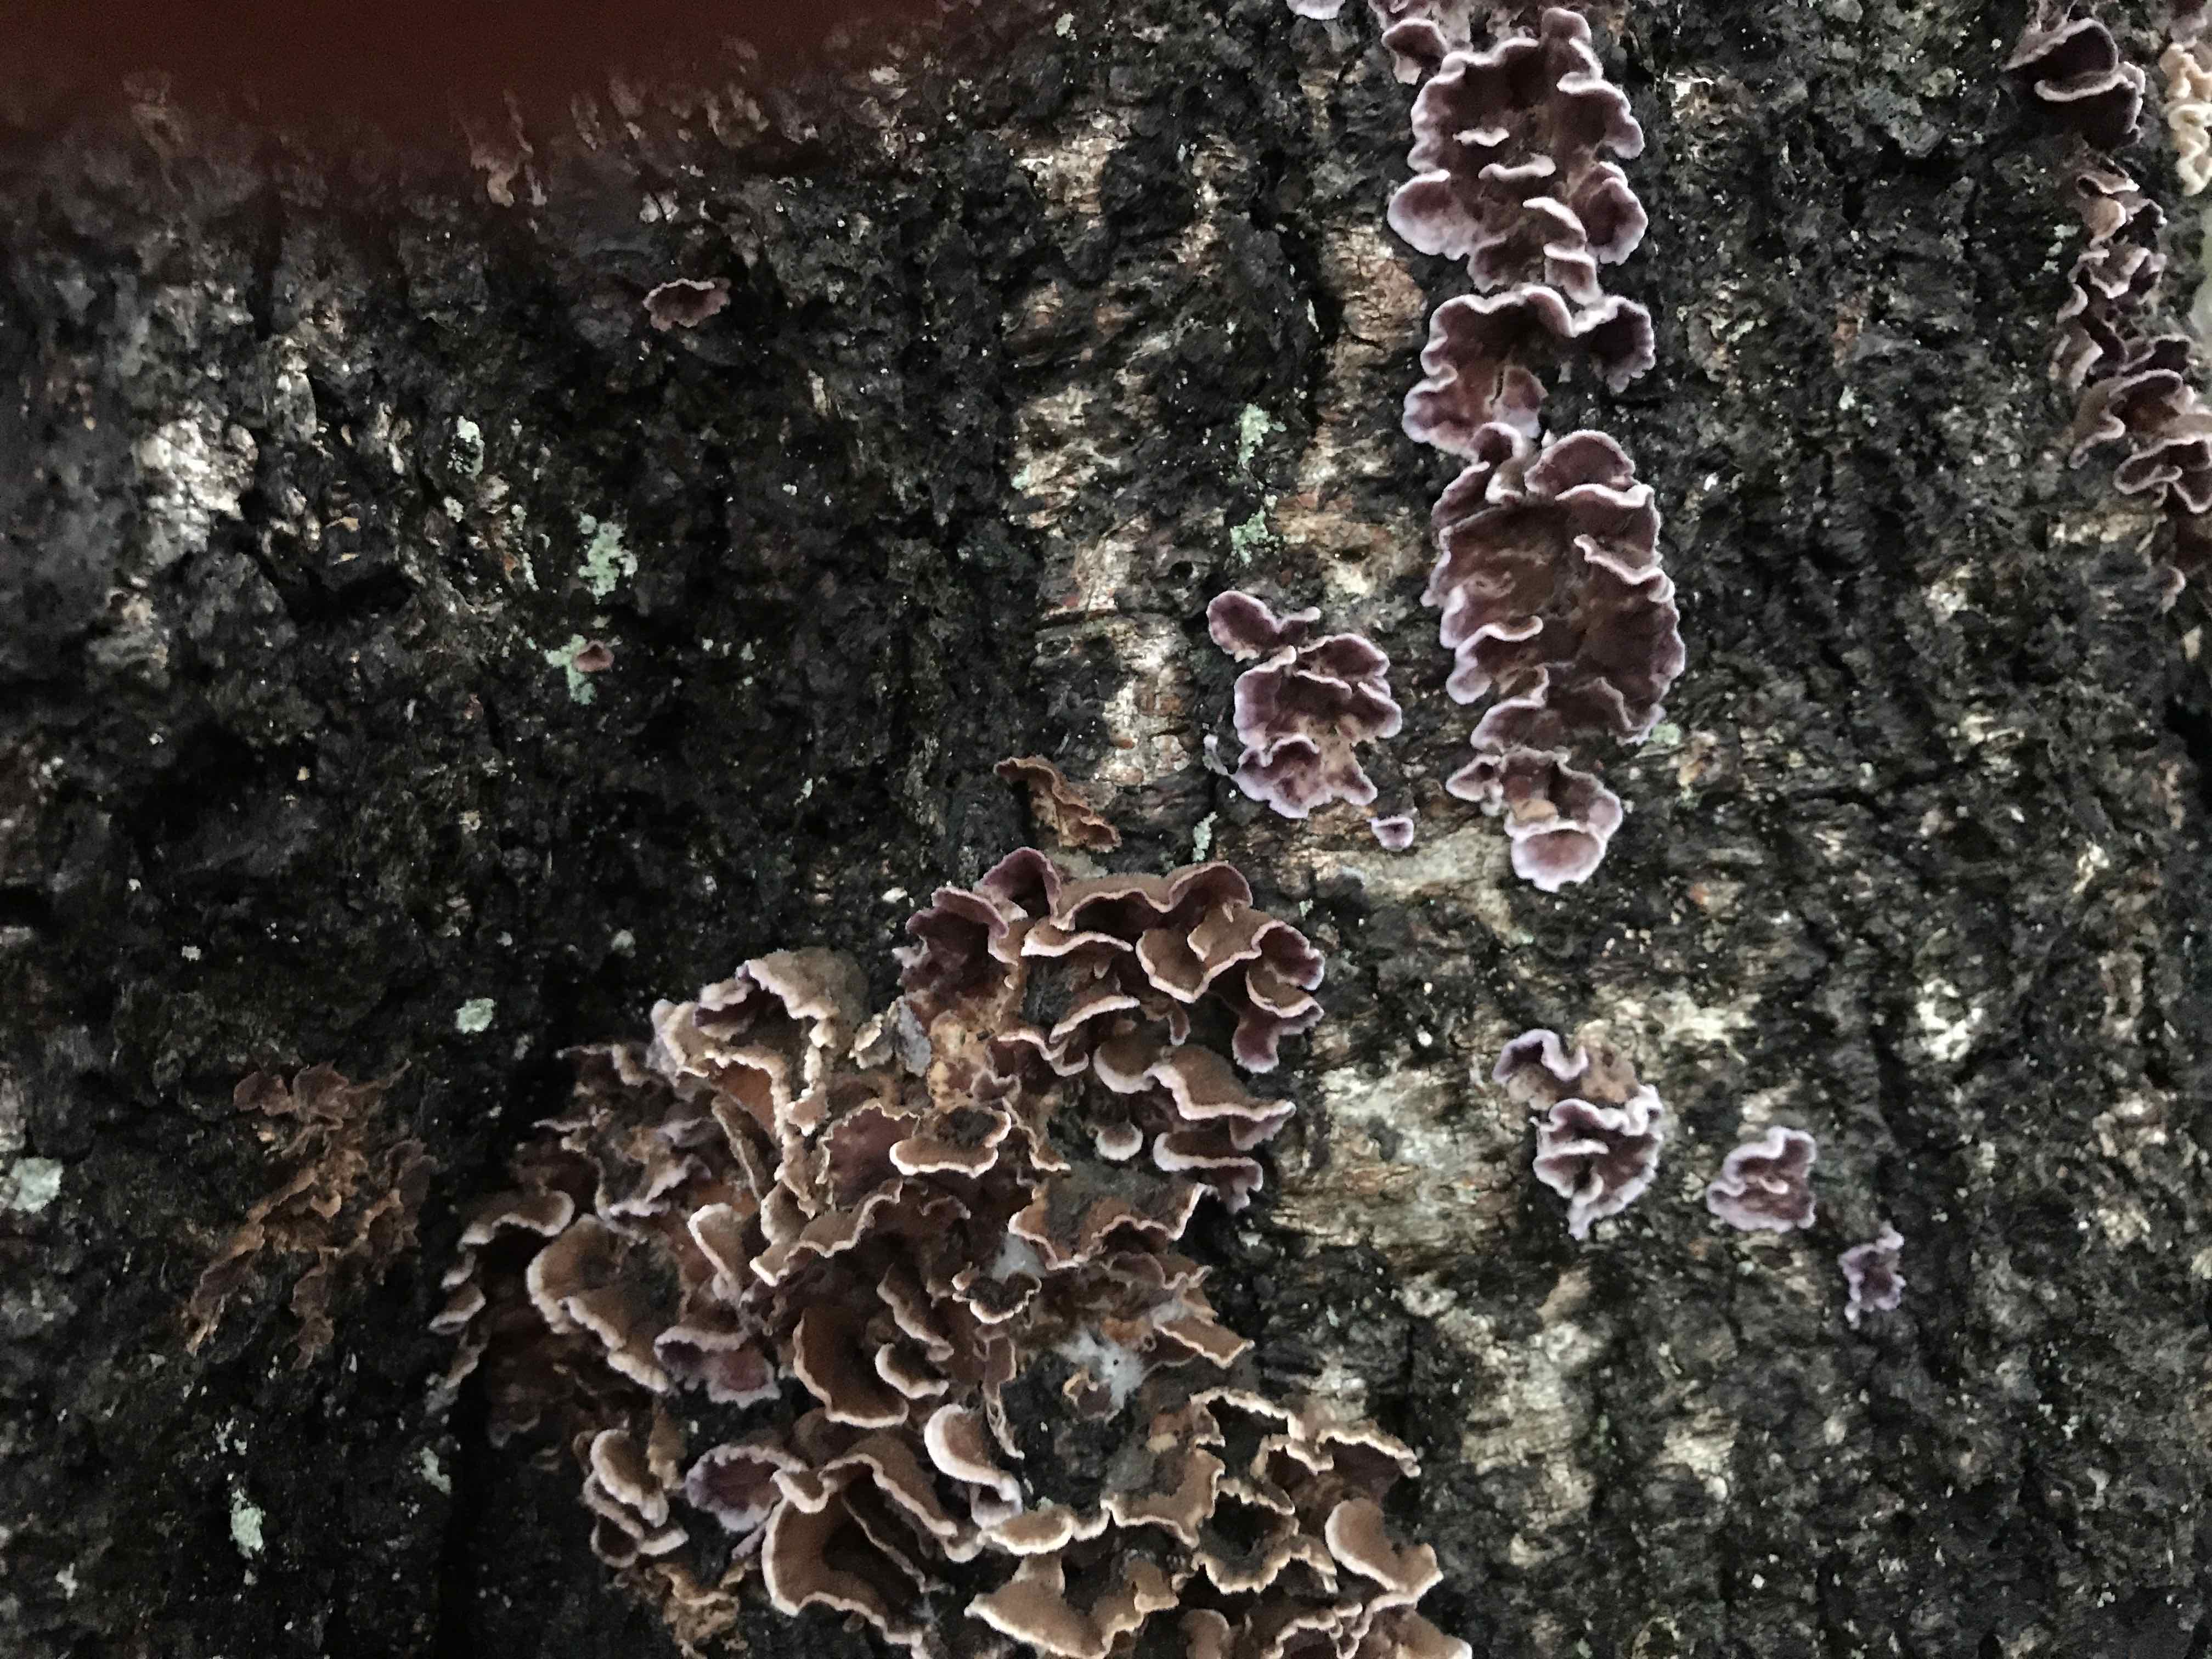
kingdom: Fungi
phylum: Basidiomycota
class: Agaricomycetes
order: Agaricales
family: Cyphellaceae
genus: Chondrostereum
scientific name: Chondrostereum purpureum
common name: purpurlædersvamp
